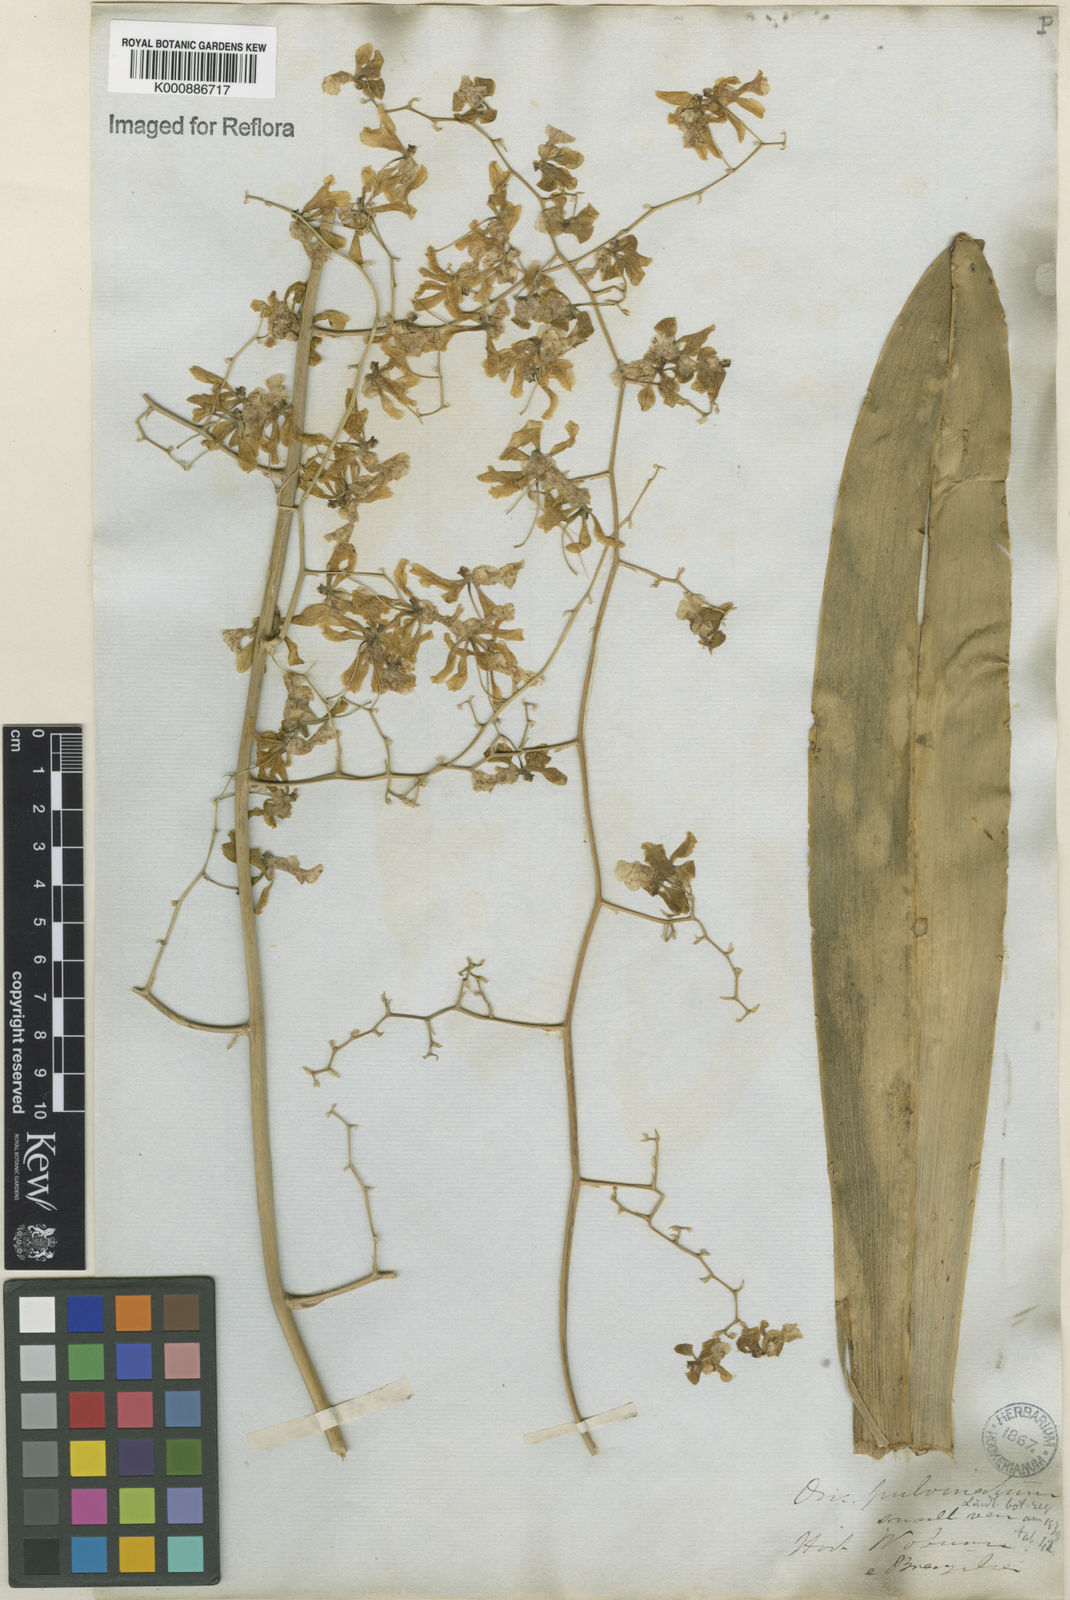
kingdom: Plantae
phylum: Tracheophyta
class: Liliopsida
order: Asparagales
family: Orchidaceae
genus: Grandiphyllum
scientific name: Grandiphyllum divaricatum
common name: Mule-ear orchid
